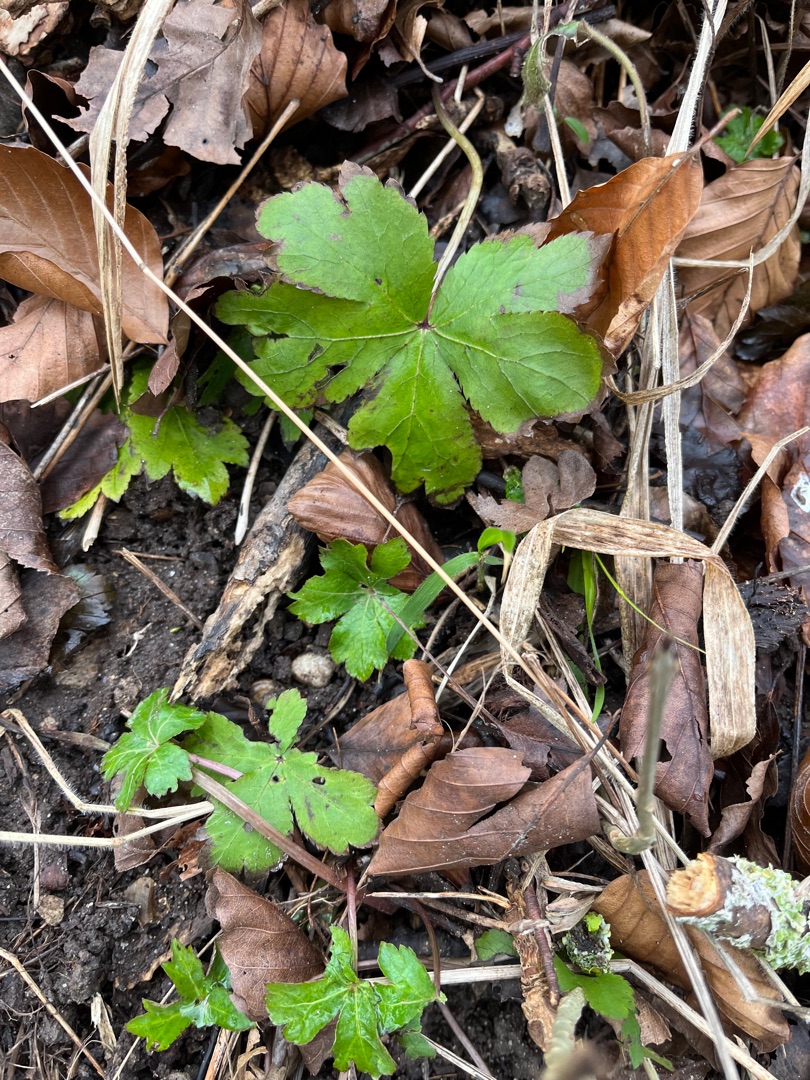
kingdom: Plantae
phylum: Tracheophyta
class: Magnoliopsida
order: Apiales
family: Apiaceae
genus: Sanicula
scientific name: Sanicula europaea
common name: Sanikel
